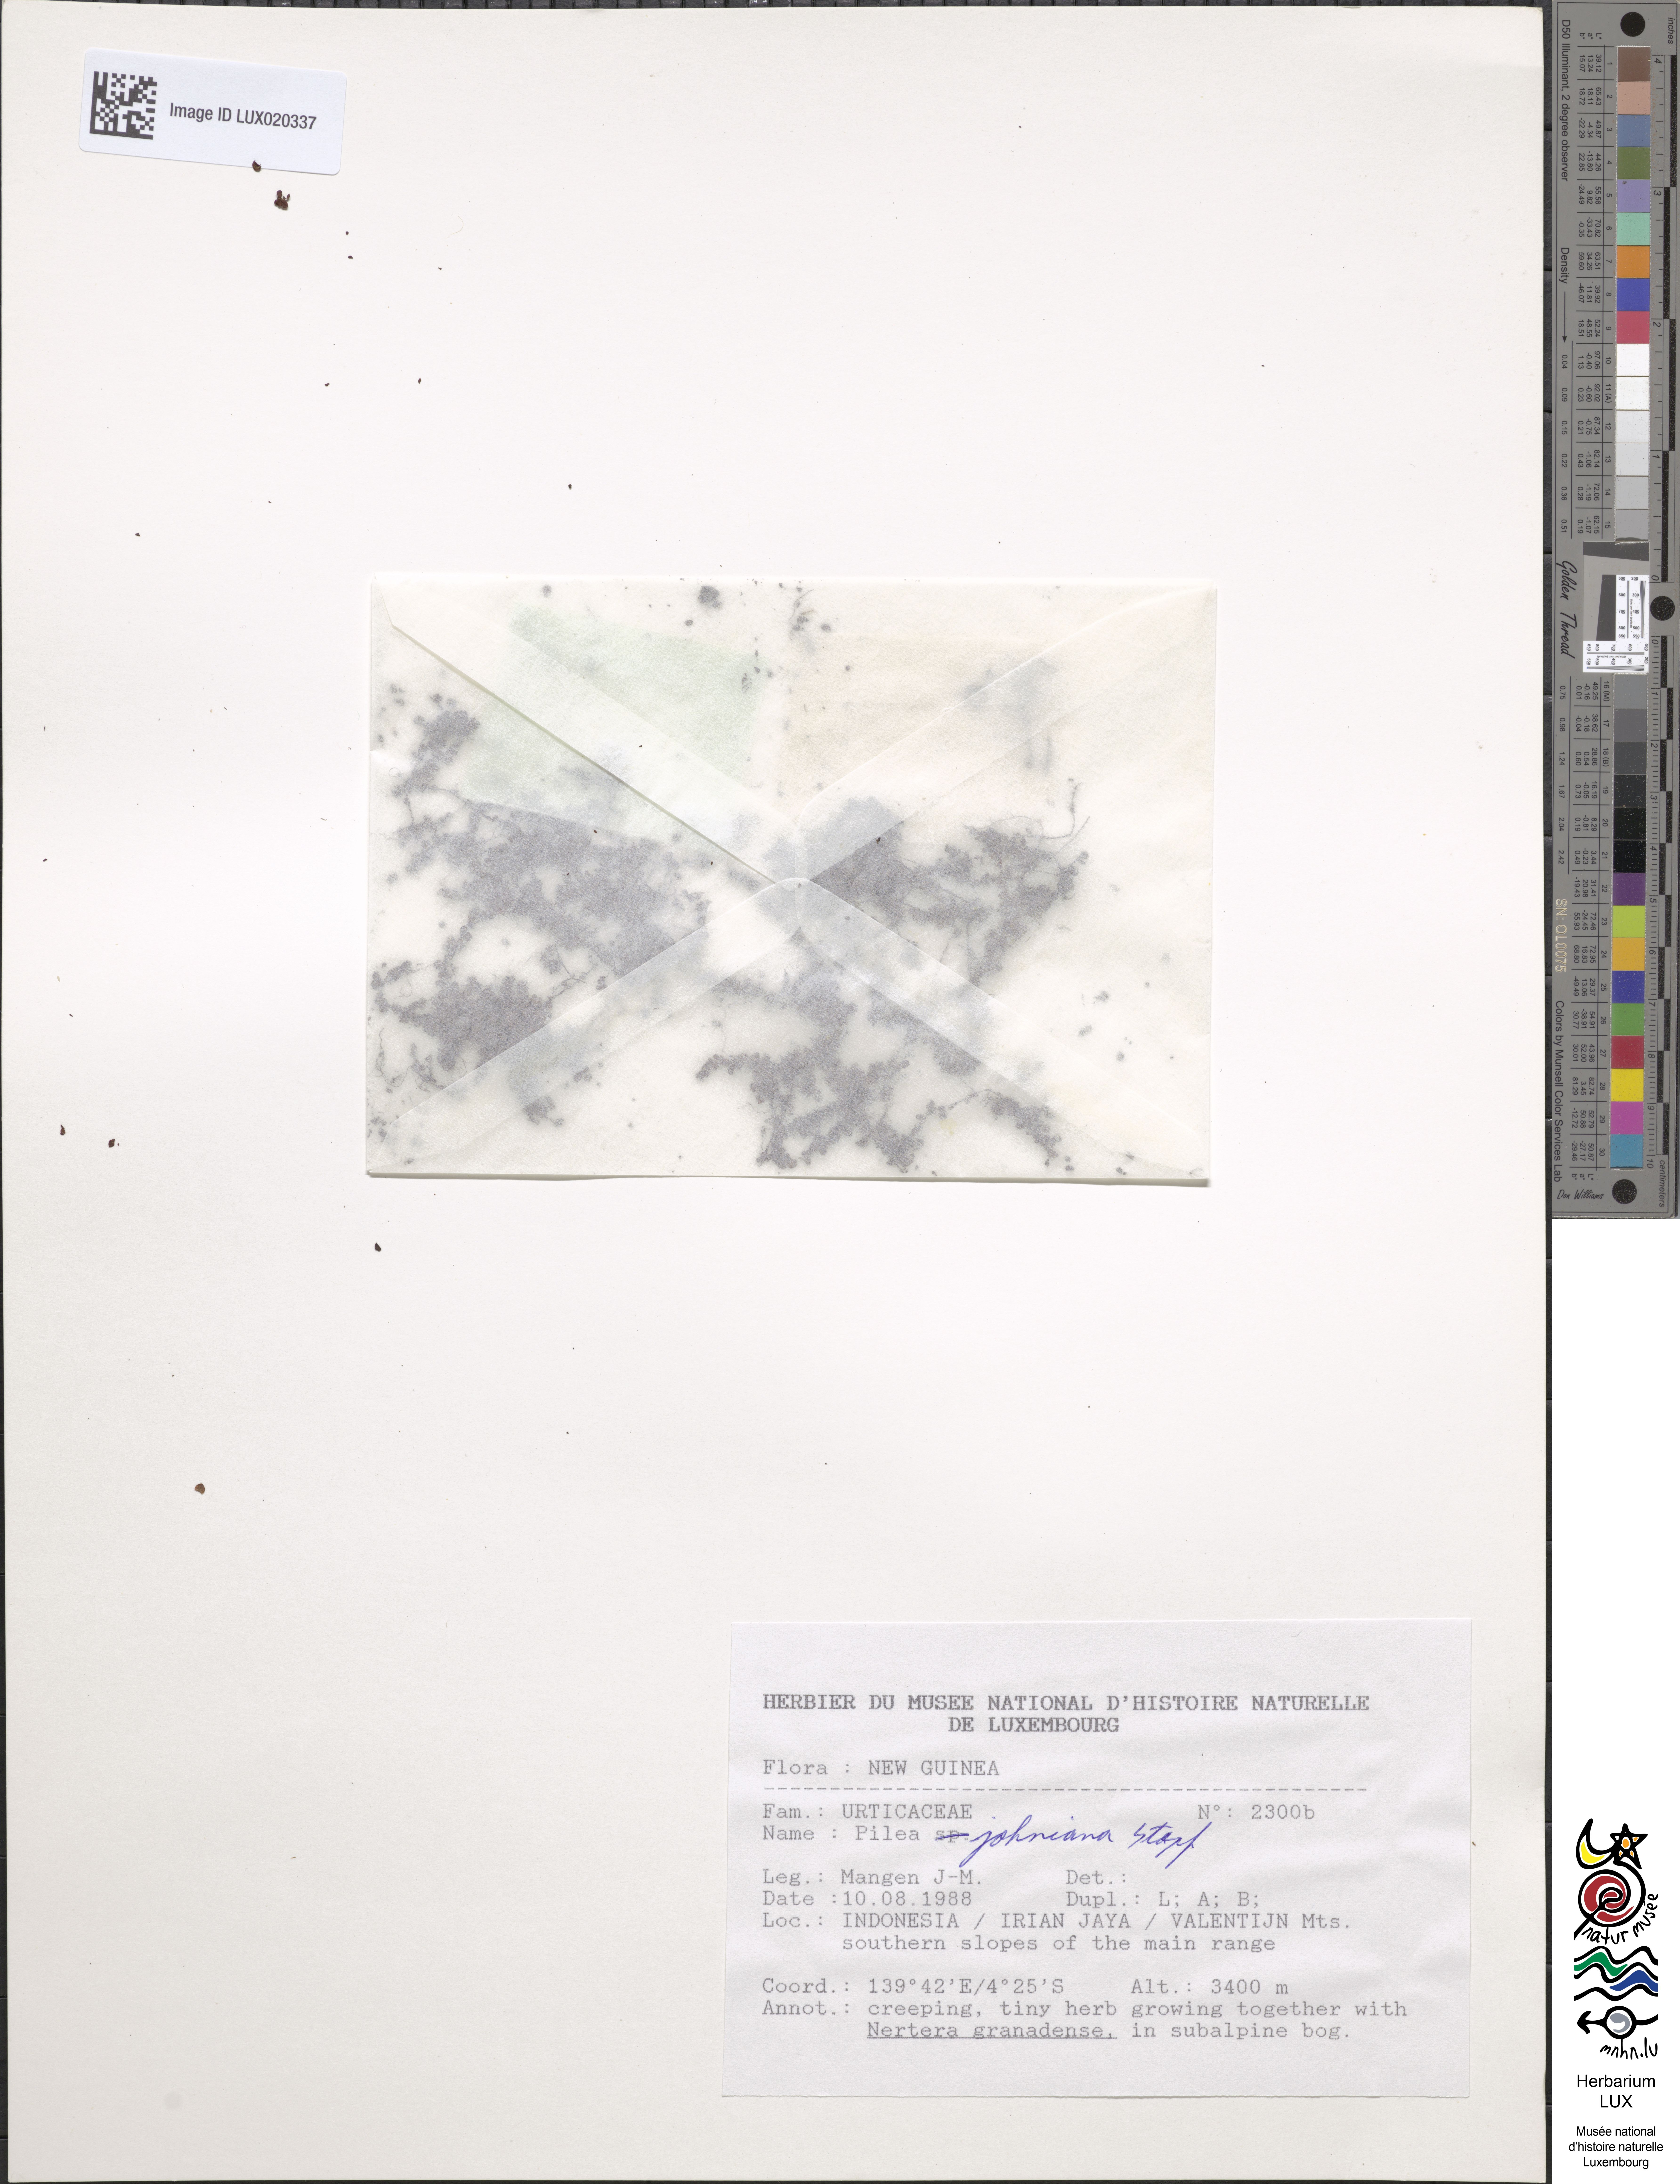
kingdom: Plantae
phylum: Tracheophyta
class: Magnoliopsida
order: Rosales
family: Urticaceae
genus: Pilea
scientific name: Pilea johniana
